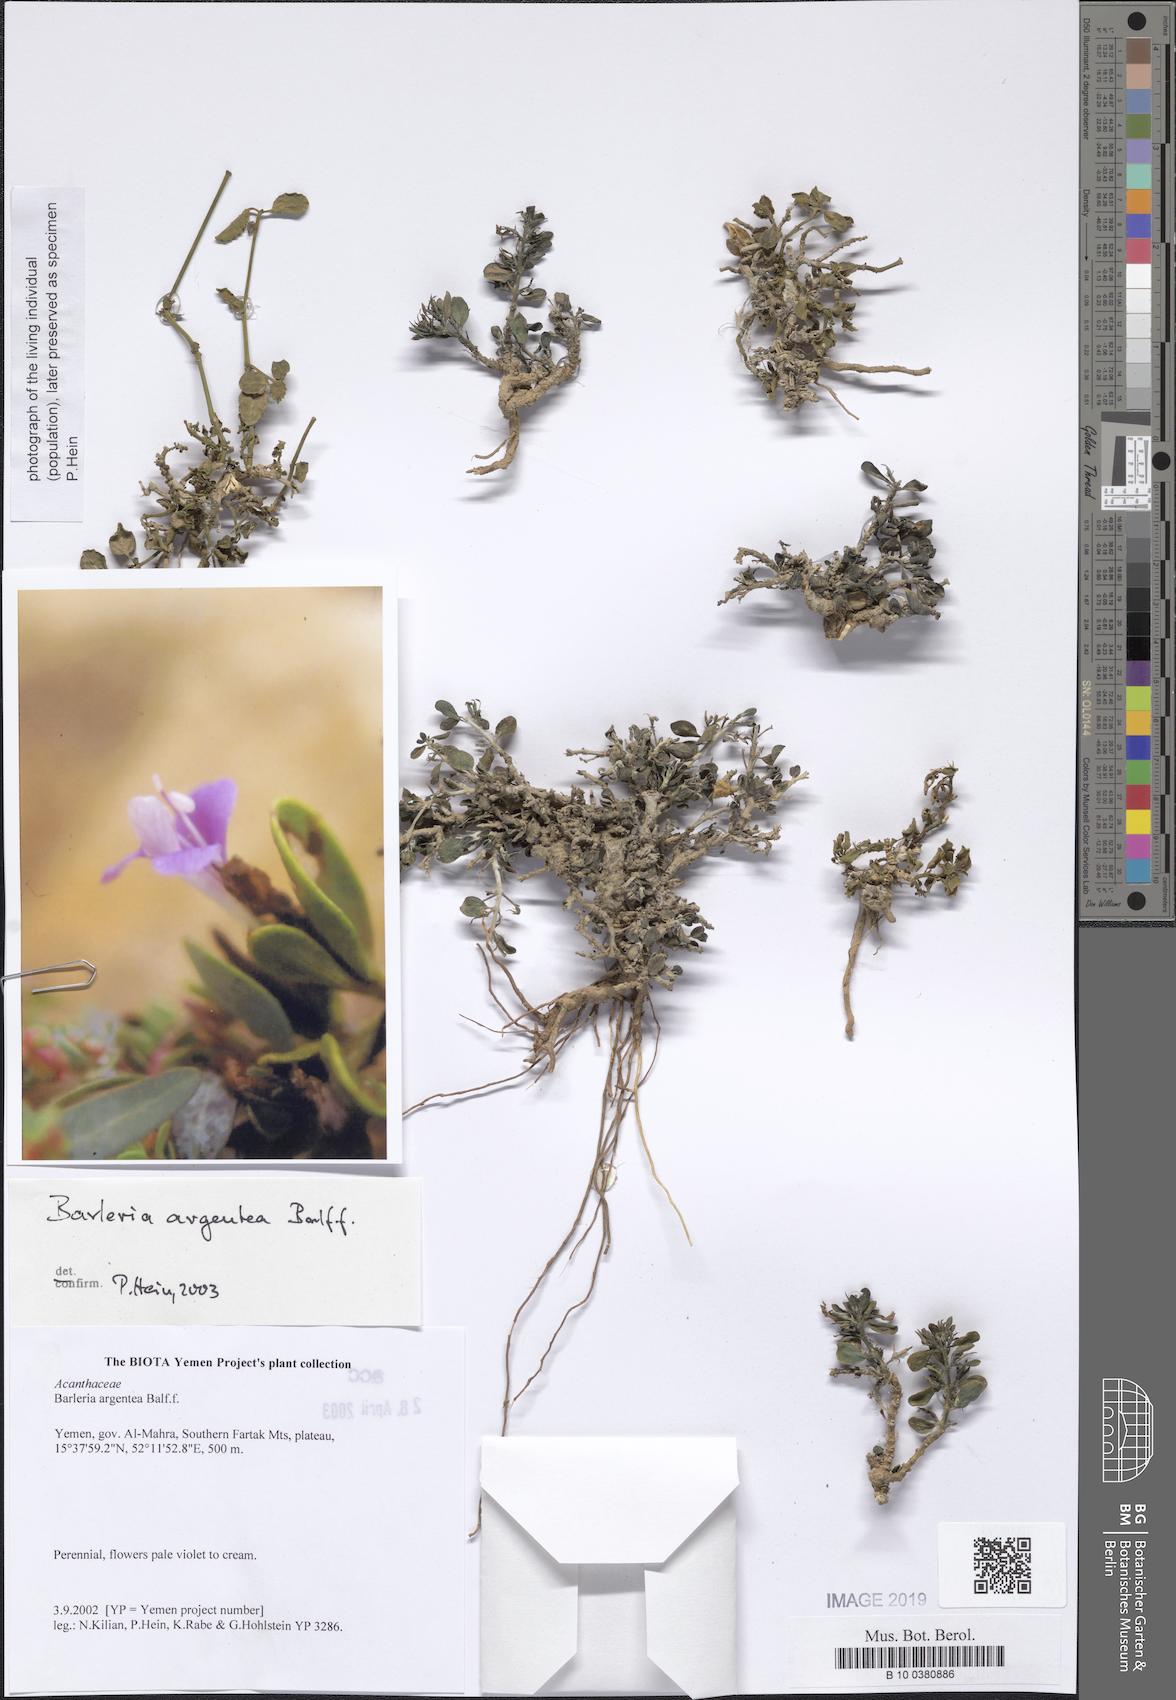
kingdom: Plantae
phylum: Tracheophyta
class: Magnoliopsida
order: Lamiales
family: Acanthaceae
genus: Barleria
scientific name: Barleria argentea
